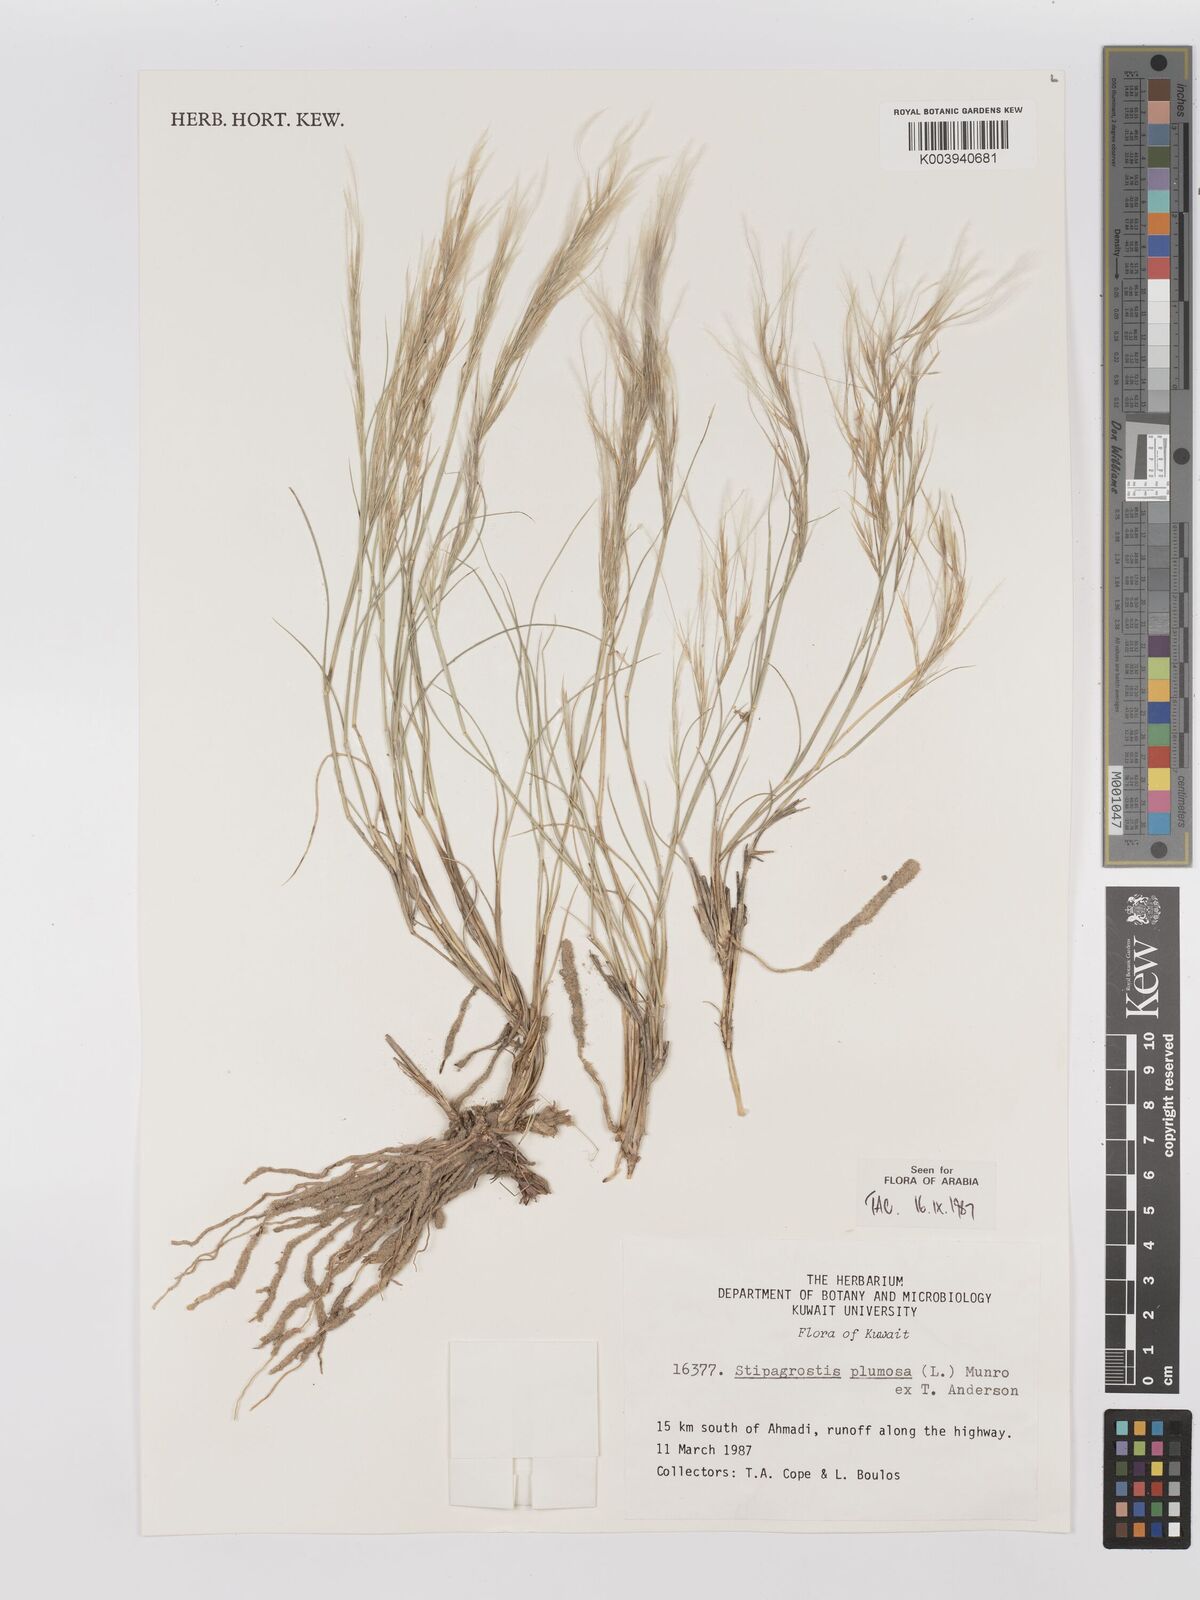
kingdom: Plantae
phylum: Tracheophyta
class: Liliopsida
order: Poales
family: Poaceae
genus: Stipagrostis
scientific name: Stipagrostis plumosa
